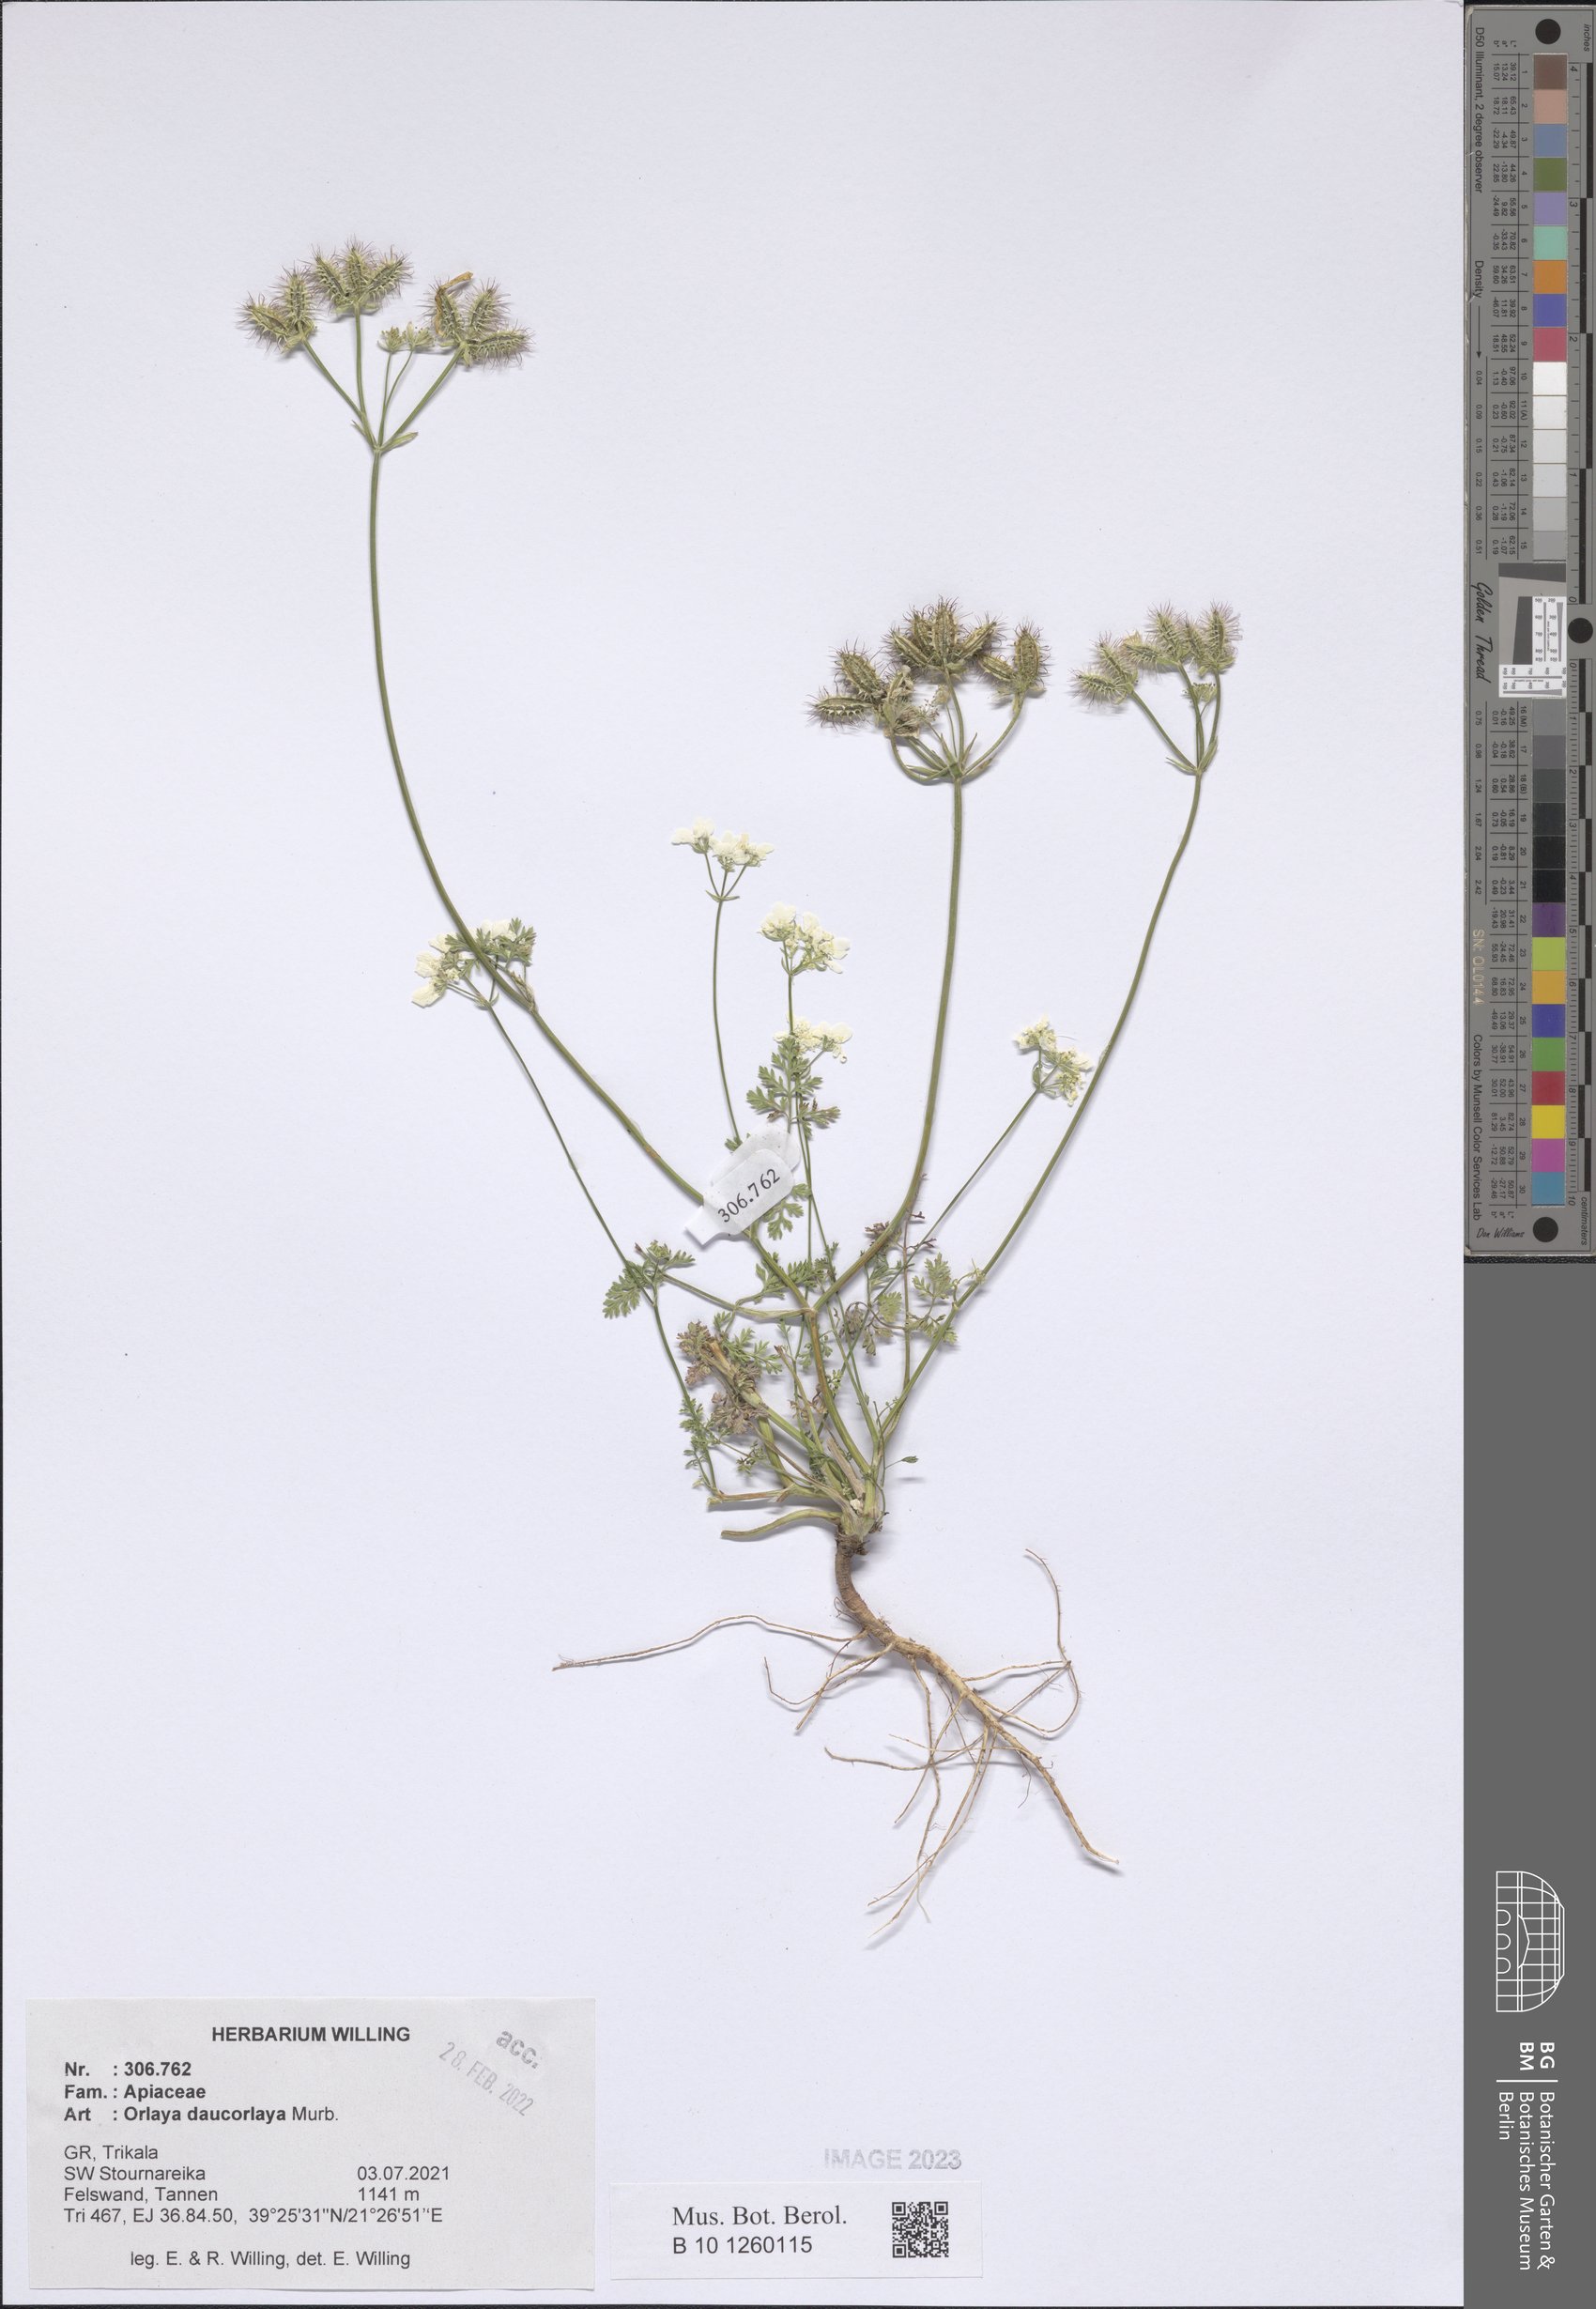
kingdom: Plantae
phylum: Tracheophyta
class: Magnoliopsida
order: Apiales
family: Apiaceae
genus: Orlaya
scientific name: Orlaya daucorlaya
